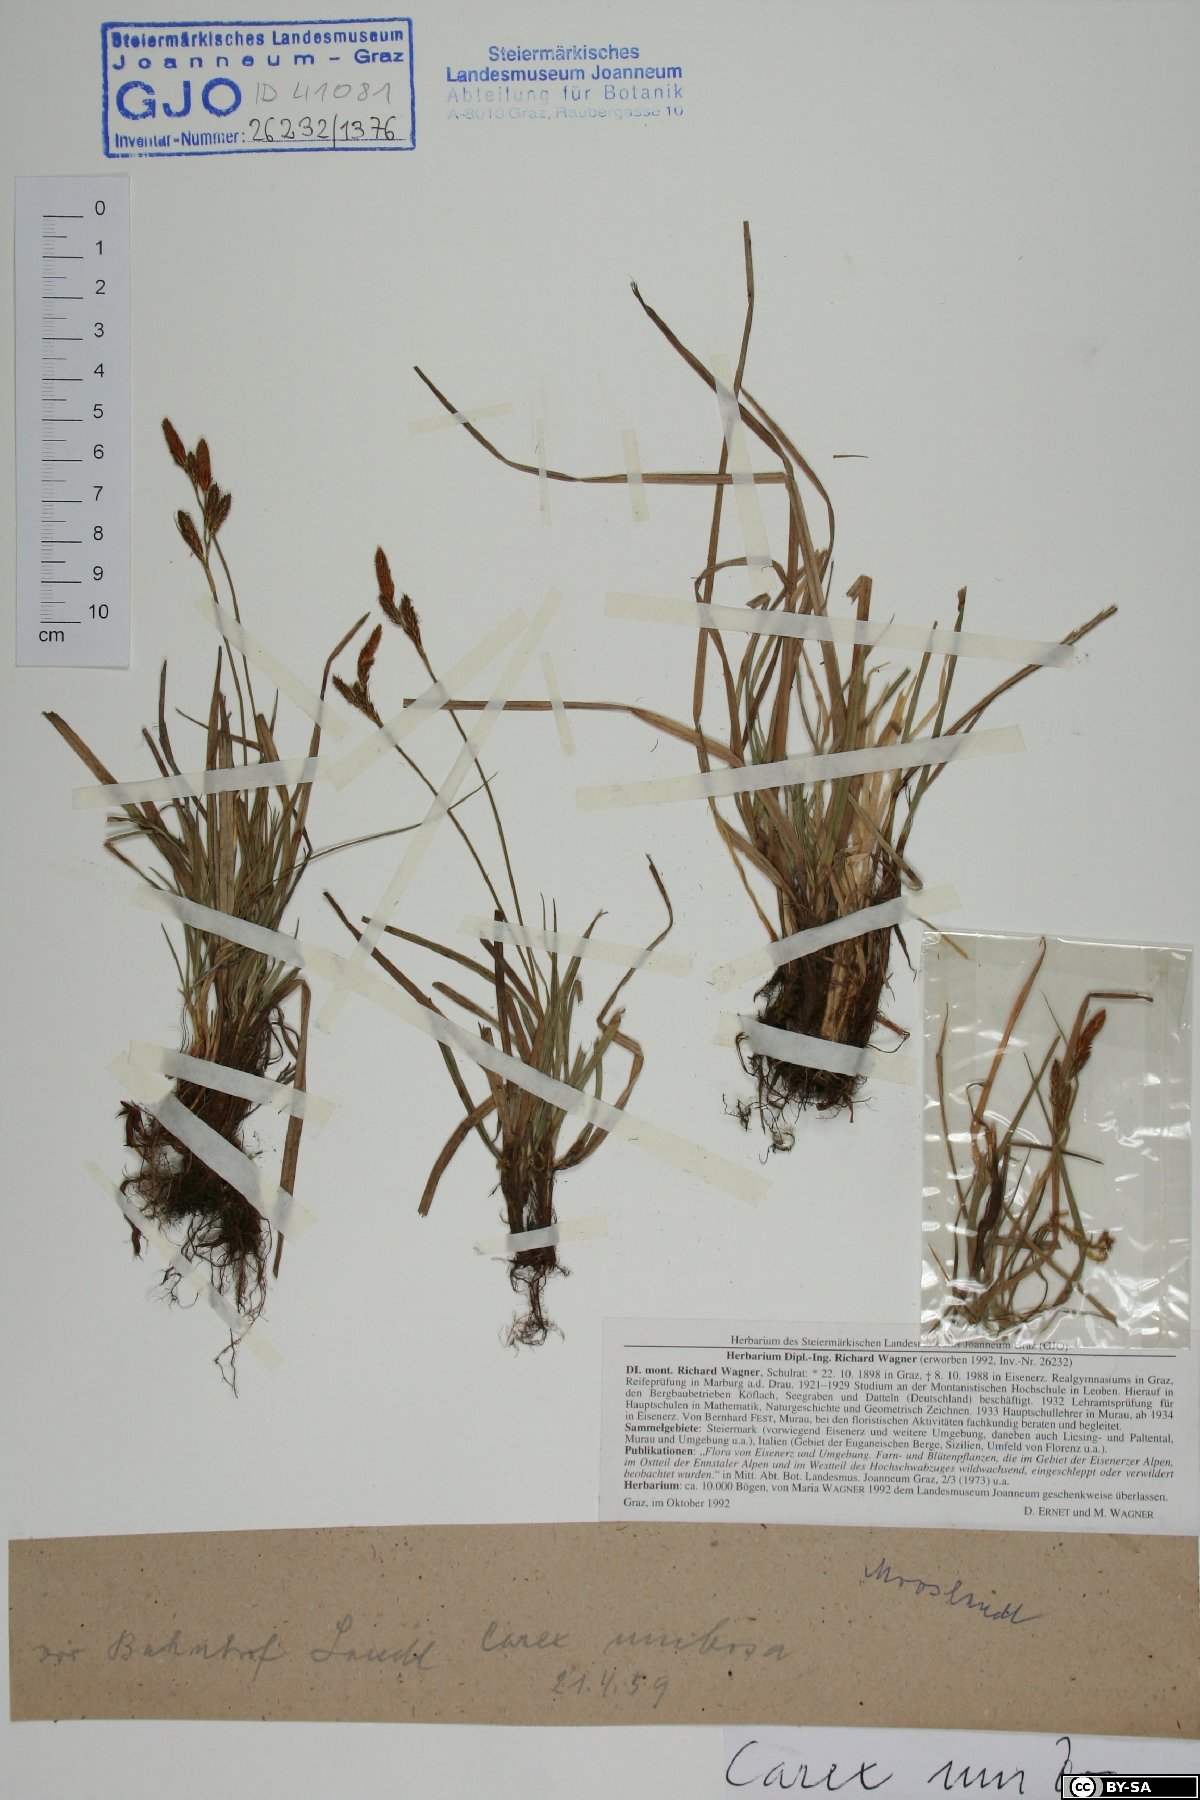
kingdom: Plantae
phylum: Tracheophyta
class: Liliopsida
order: Poales
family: Cyperaceae
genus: Carex
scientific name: Carex umbrosa
